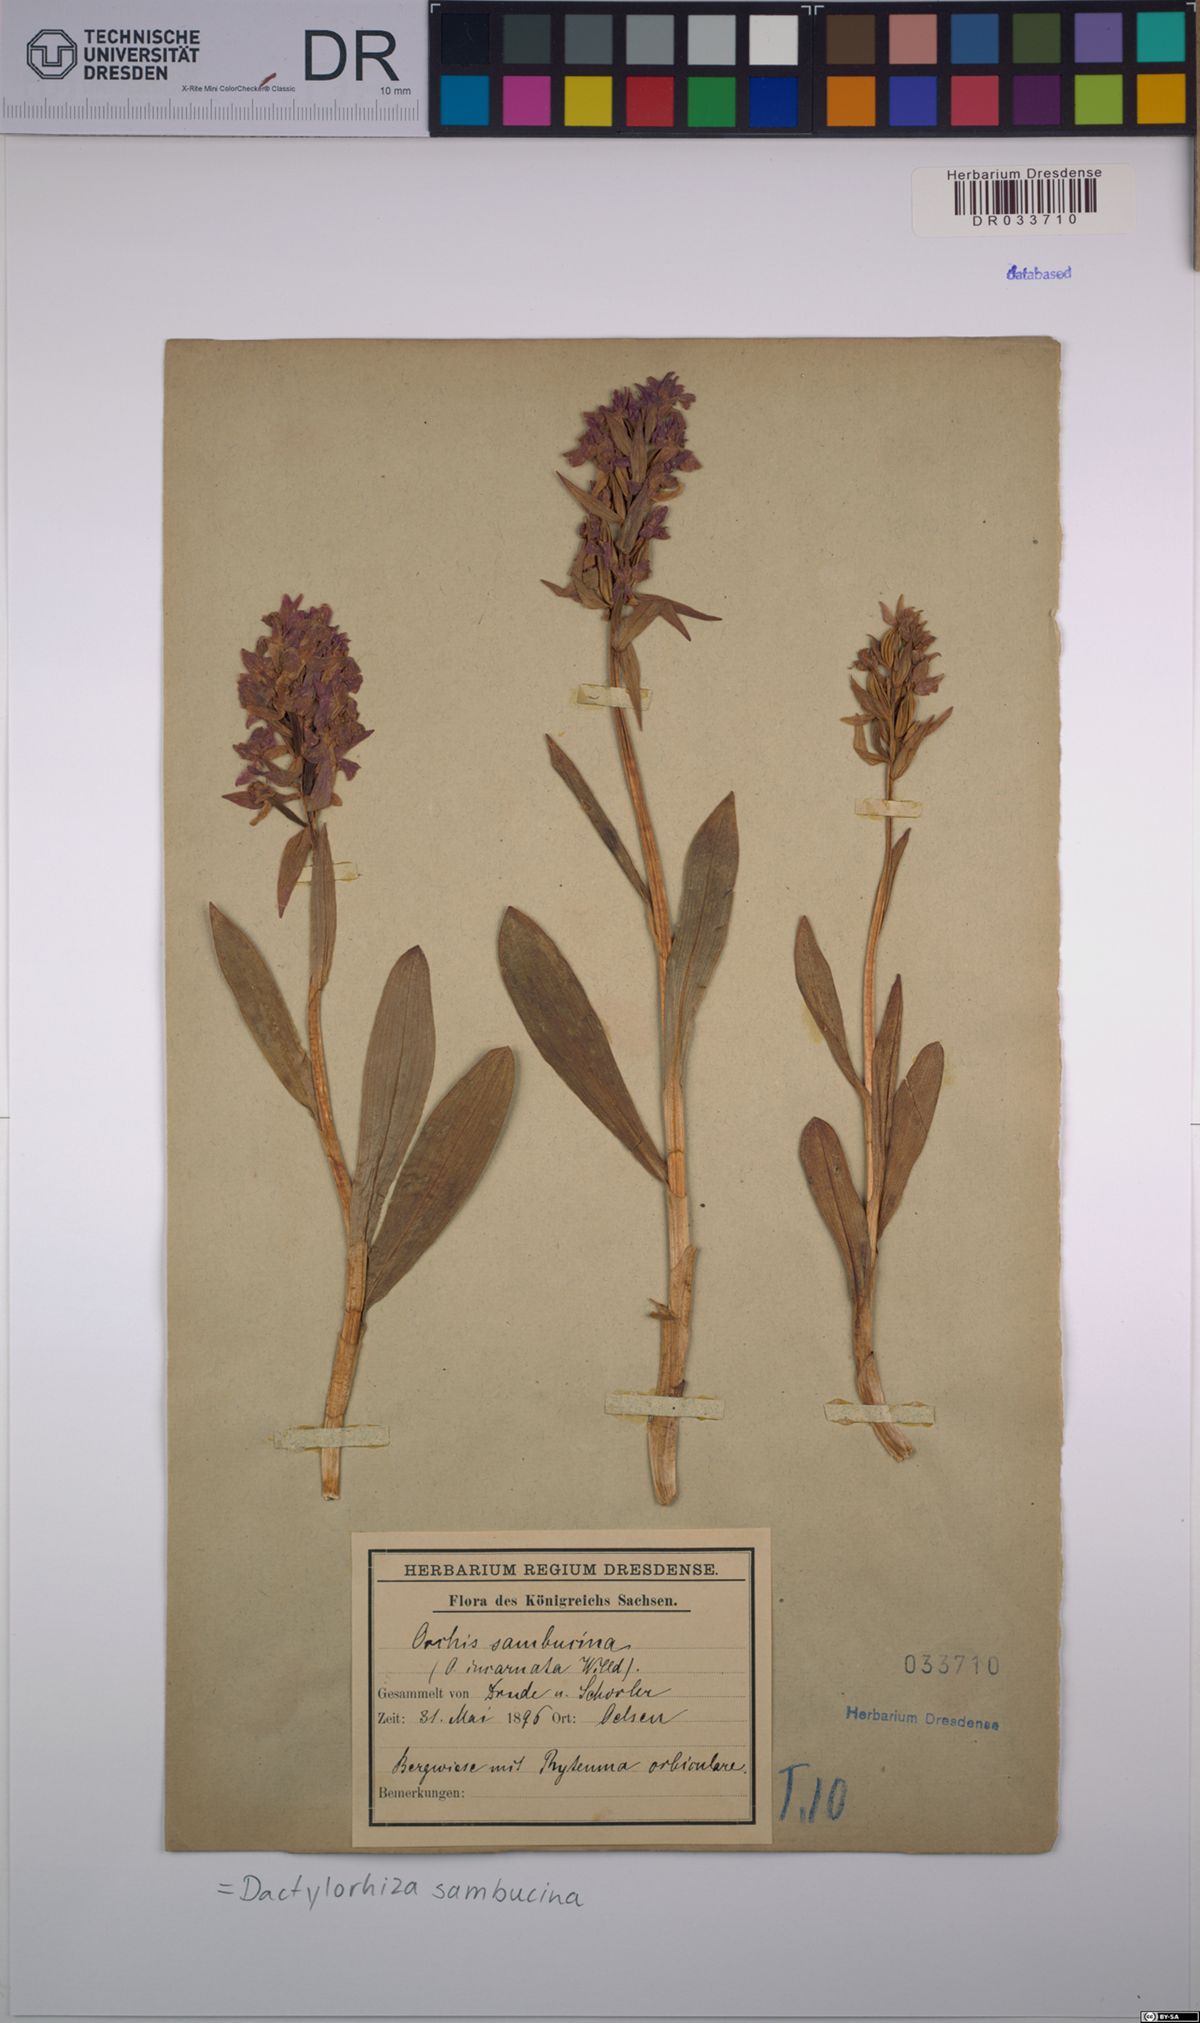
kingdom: Plantae
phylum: Tracheophyta
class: Liliopsida
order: Asparagales
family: Orchidaceae
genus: Dactylorhiza
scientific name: Dactylorhiza sambucina
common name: Elder-flowered orchid
